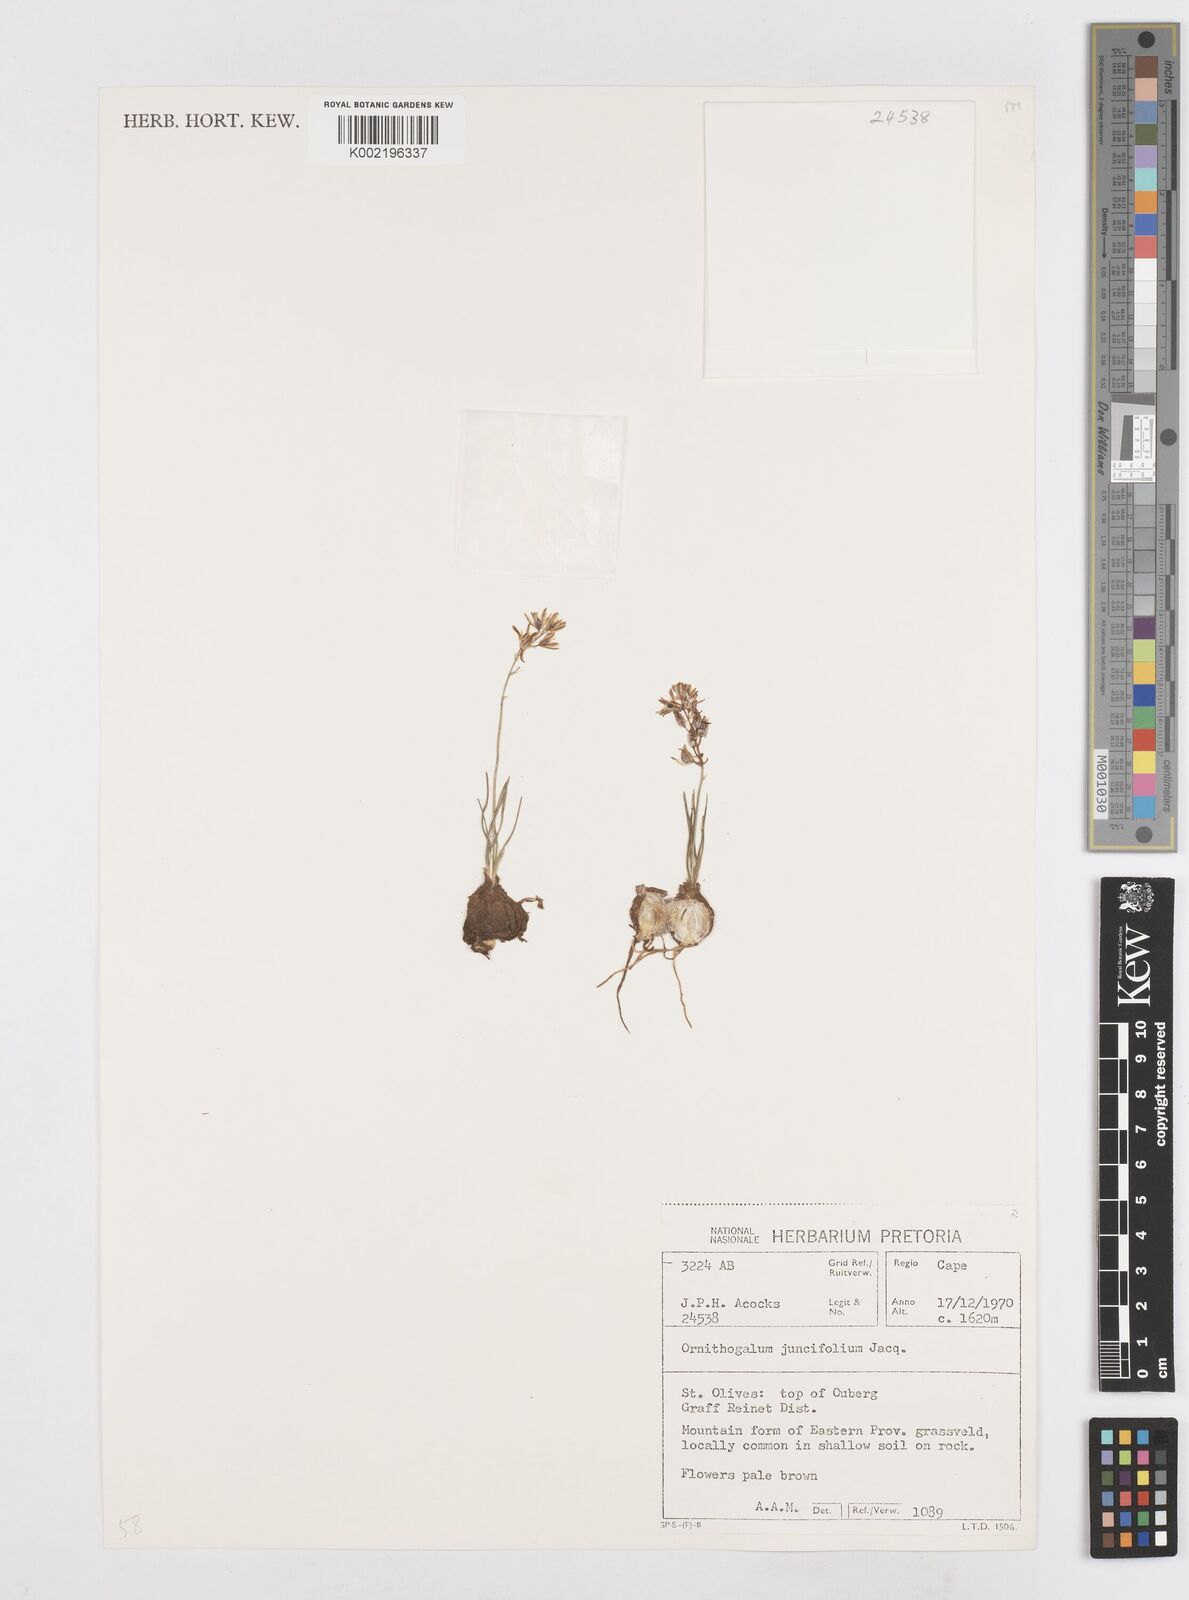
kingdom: Plantae
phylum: Tracheophyta
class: Liliopsida
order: Asparagales
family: Asparagaceae
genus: Ornithogalum
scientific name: Ornithogalum juncifolium
